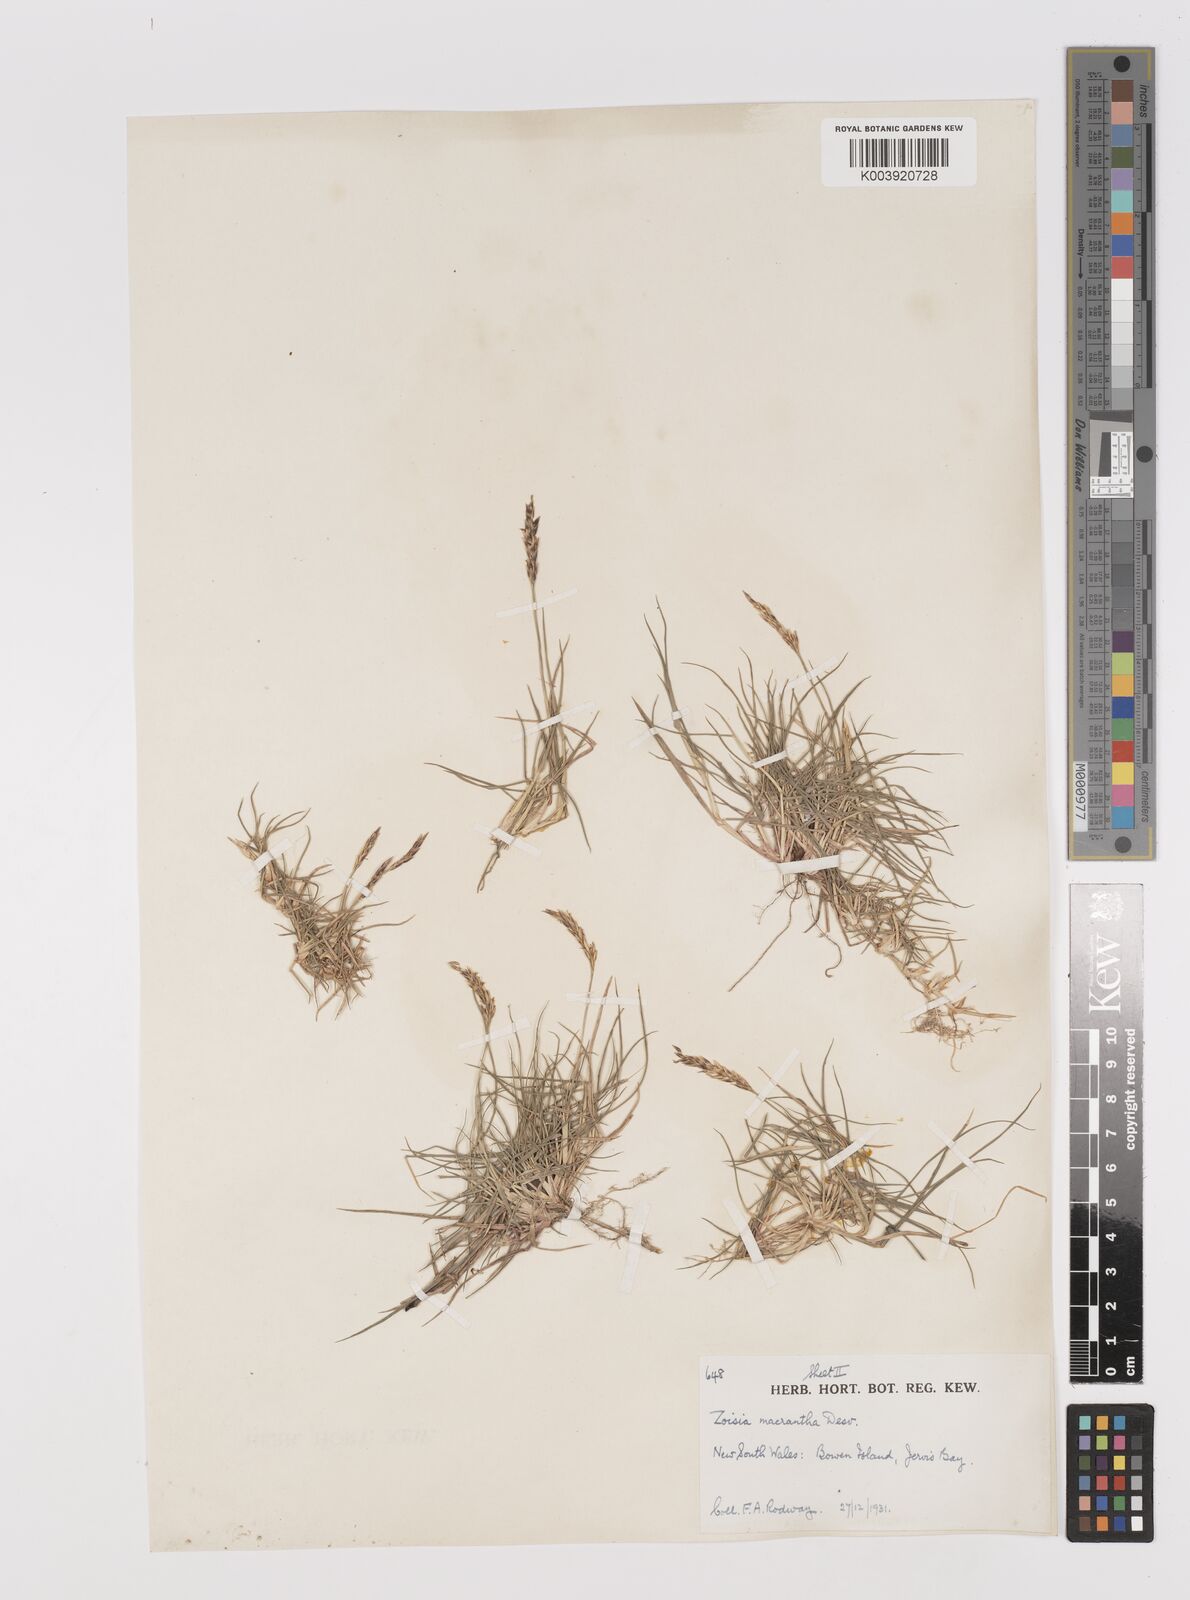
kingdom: Plantae
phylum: Tracheophyta
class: Liliopsida
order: Poales
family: Poaceae
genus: Zoysia
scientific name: Zoysia macrantha
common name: Korean lawn grass
